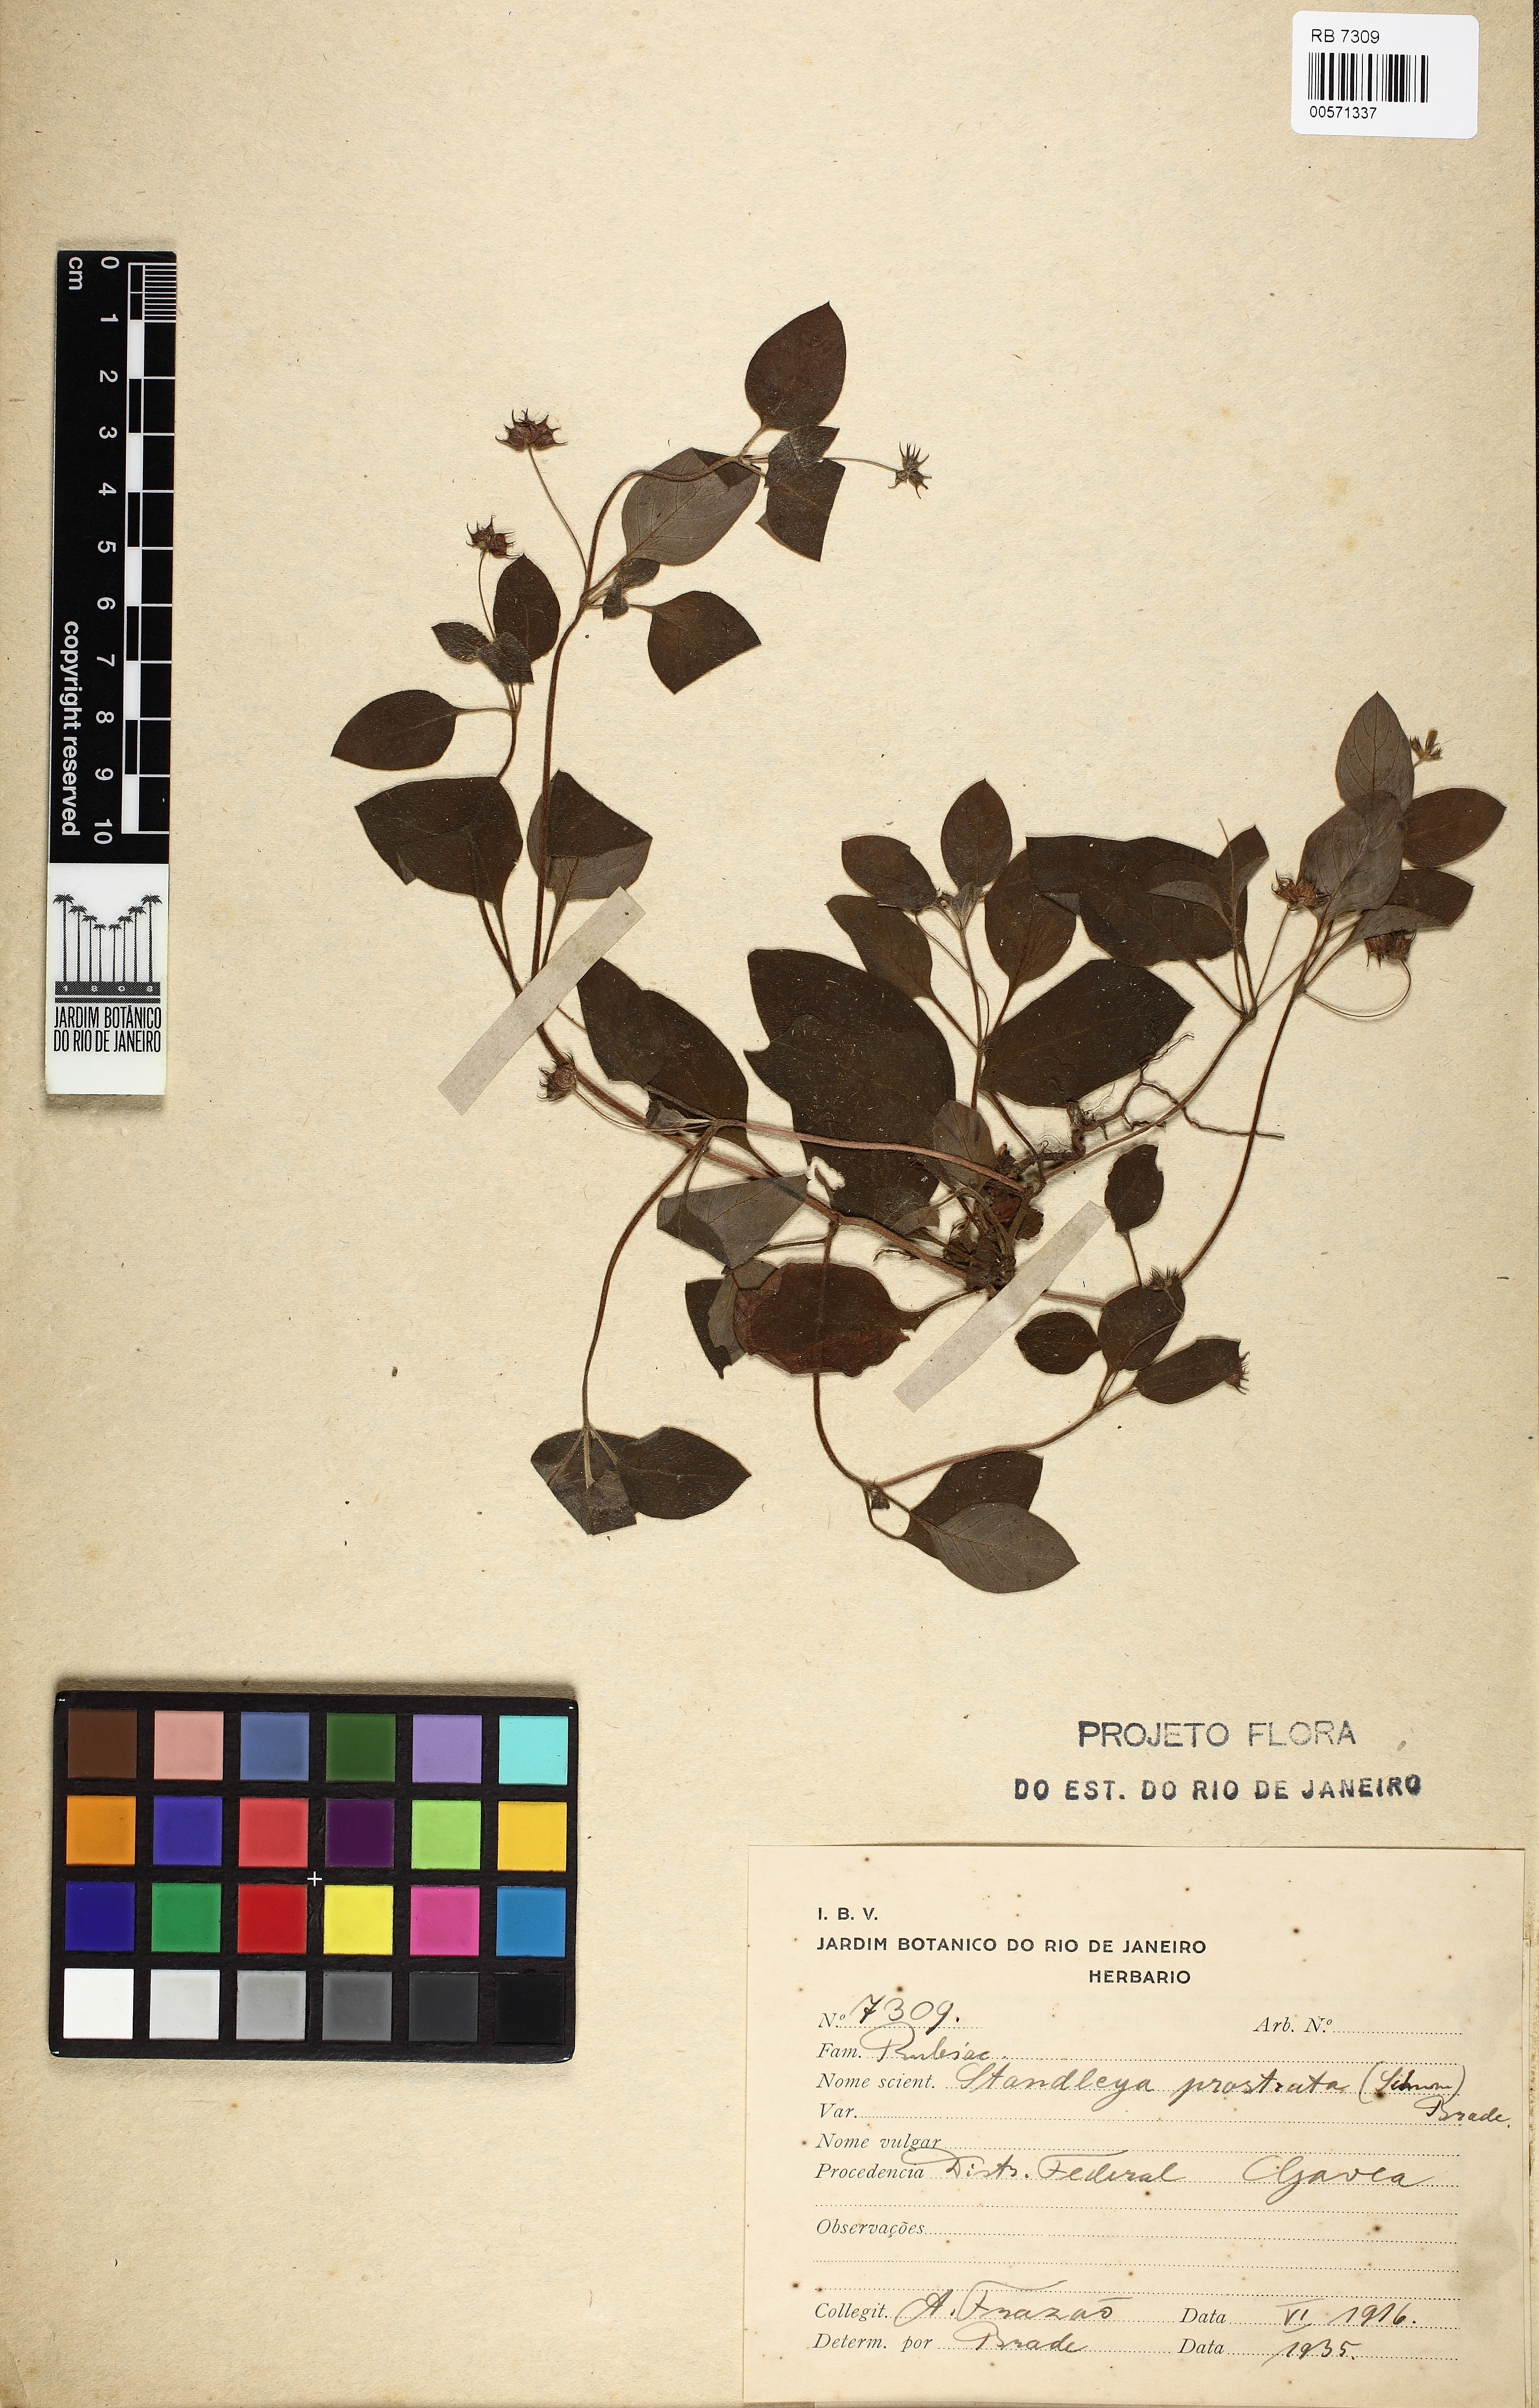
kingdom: Plantae
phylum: Tracheophyta
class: Magnoliopsida
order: Gentianales
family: Rubiaceae
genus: Standleya
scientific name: Standleya prostrata
